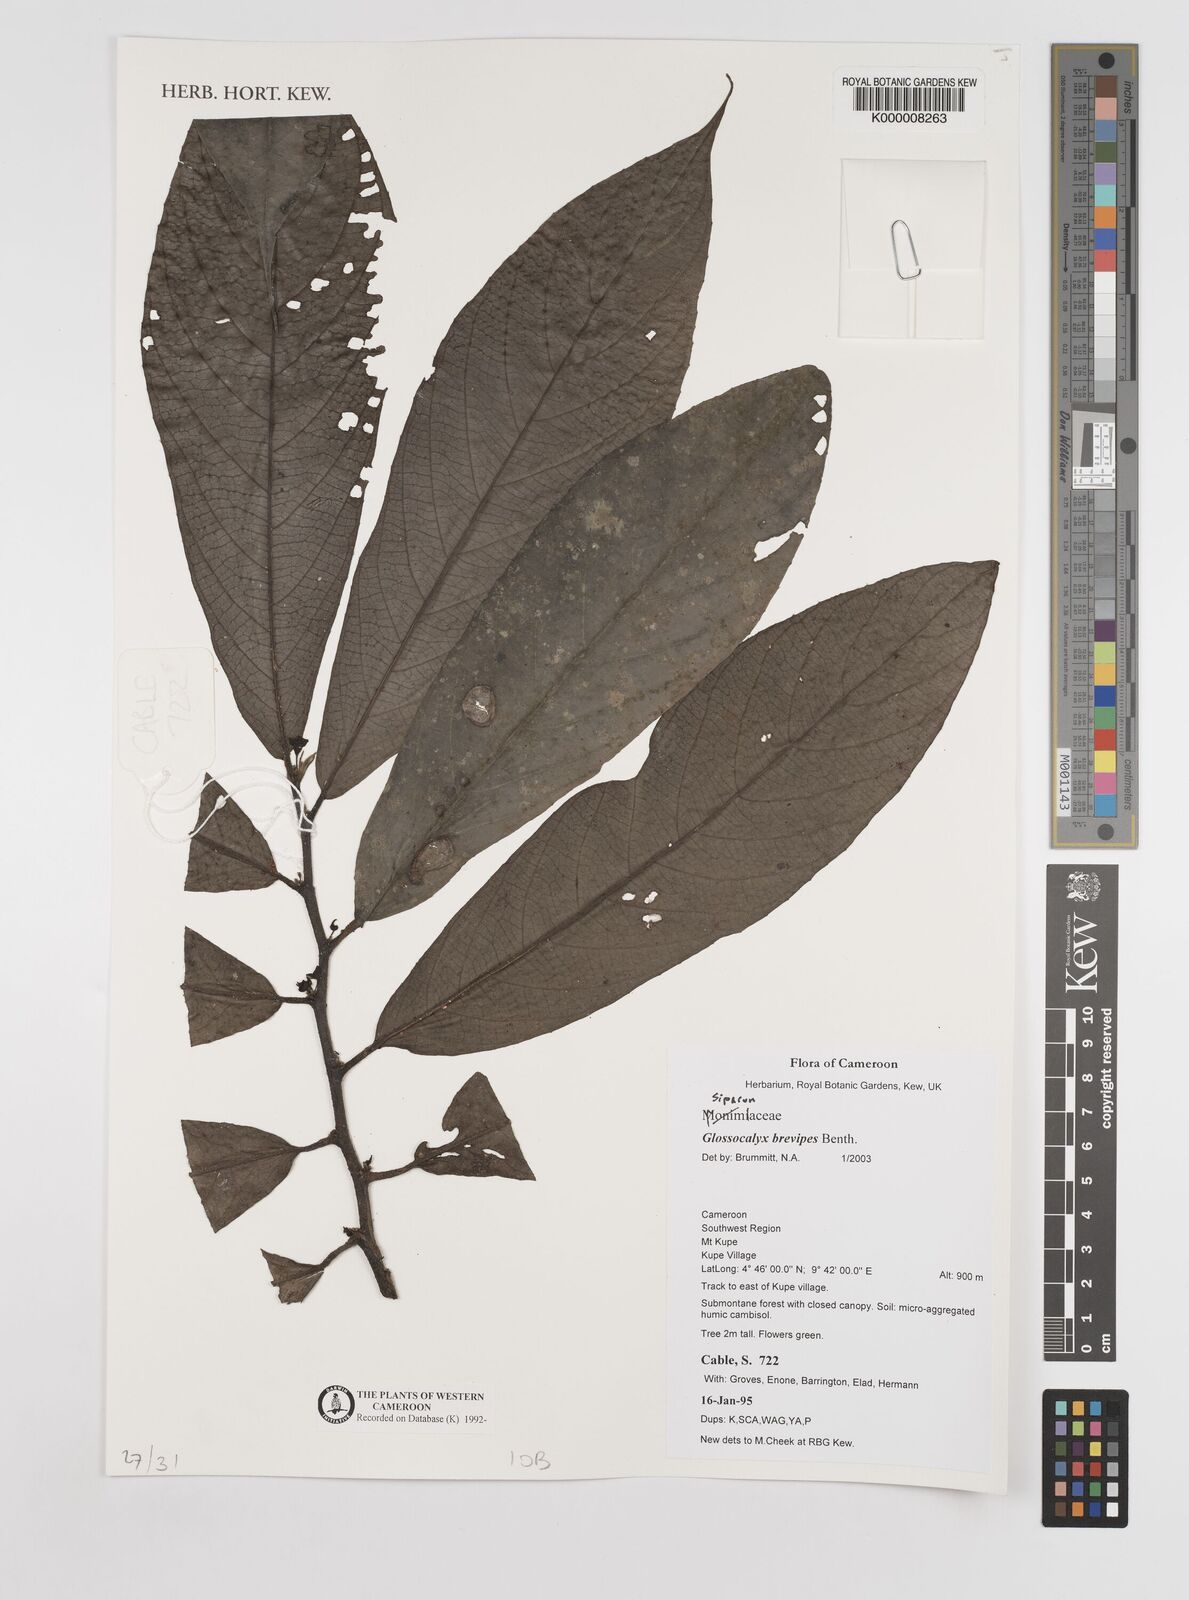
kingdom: Plantae
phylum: Tracheophyta
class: Magnoliopsida
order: Laurales
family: Siparunaceae
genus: Glossocalyx
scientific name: Glossocalyx brevipes
